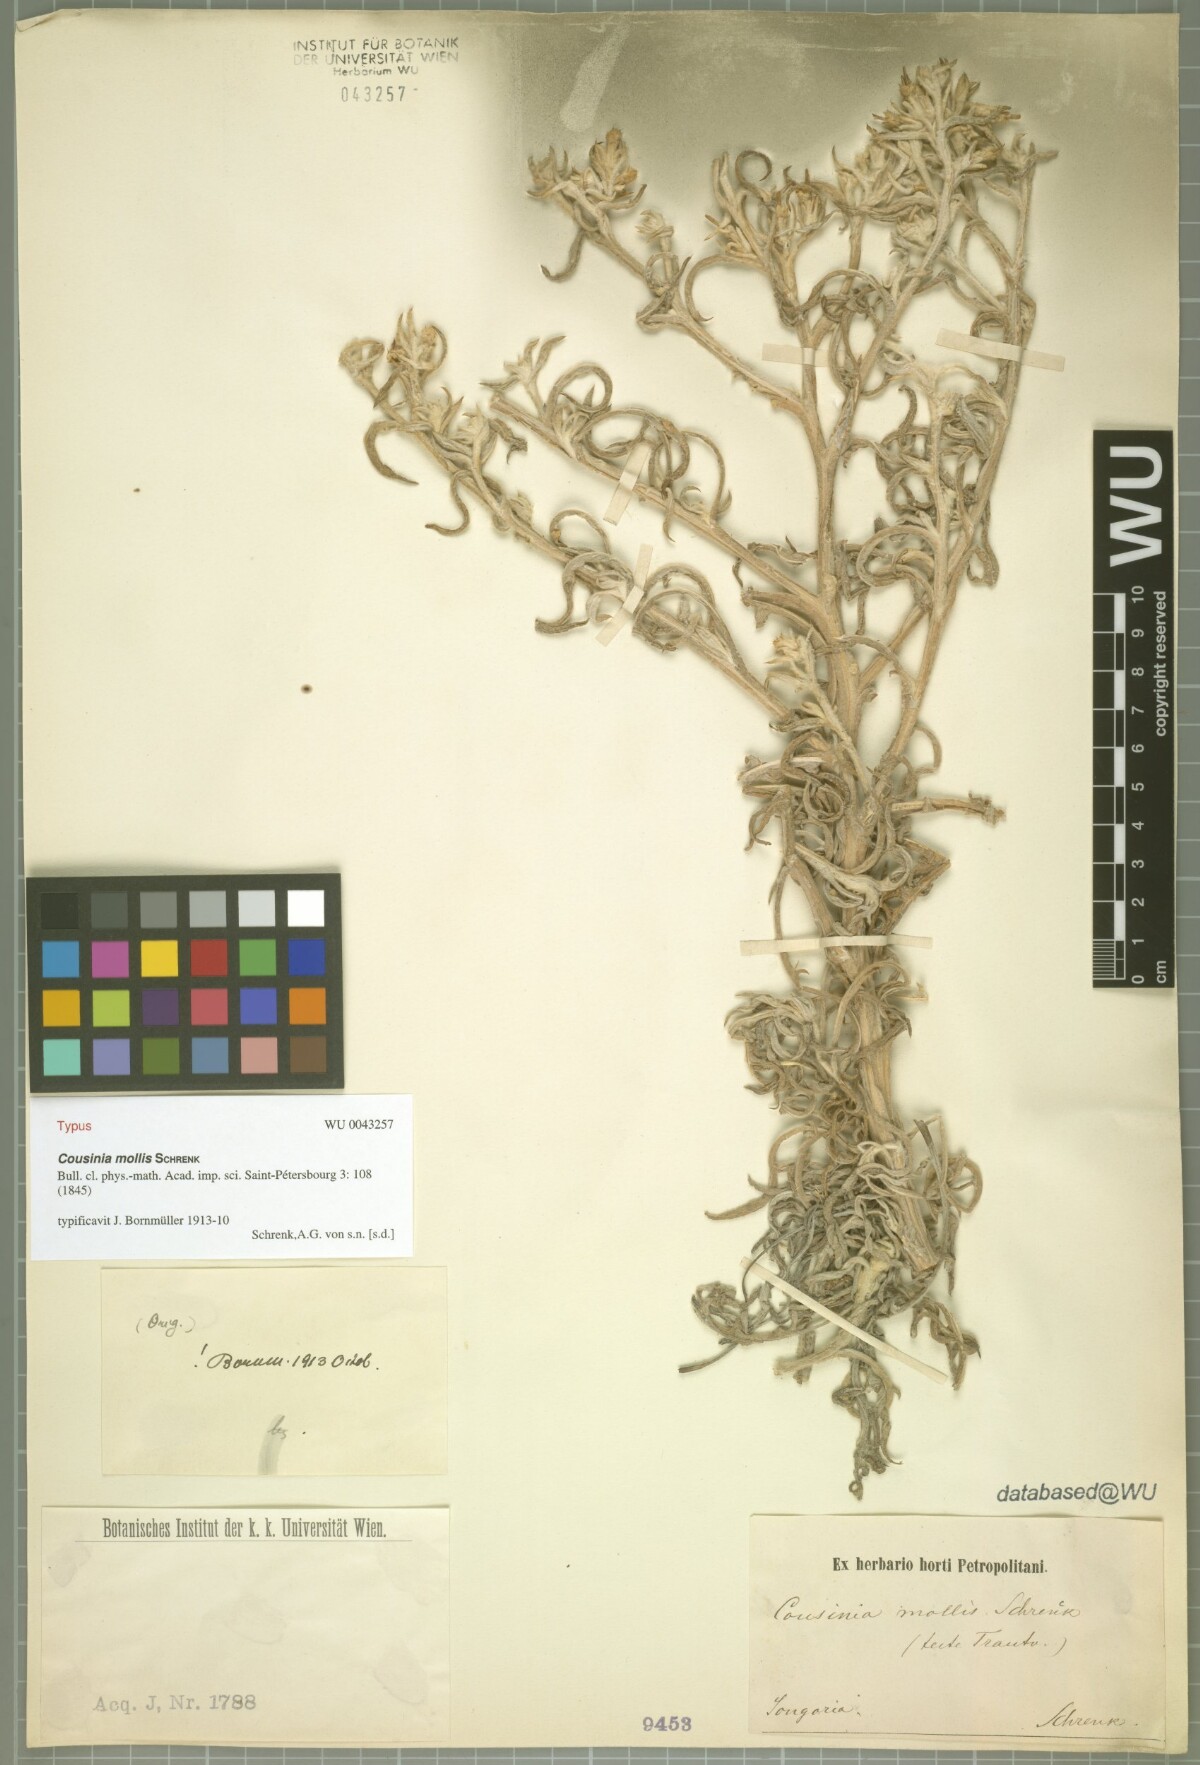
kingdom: Plantae
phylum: Tracheophyta
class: Magnoliopsida
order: Asterales
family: Asteraceae
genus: Cousinia
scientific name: Cousinia mollis
